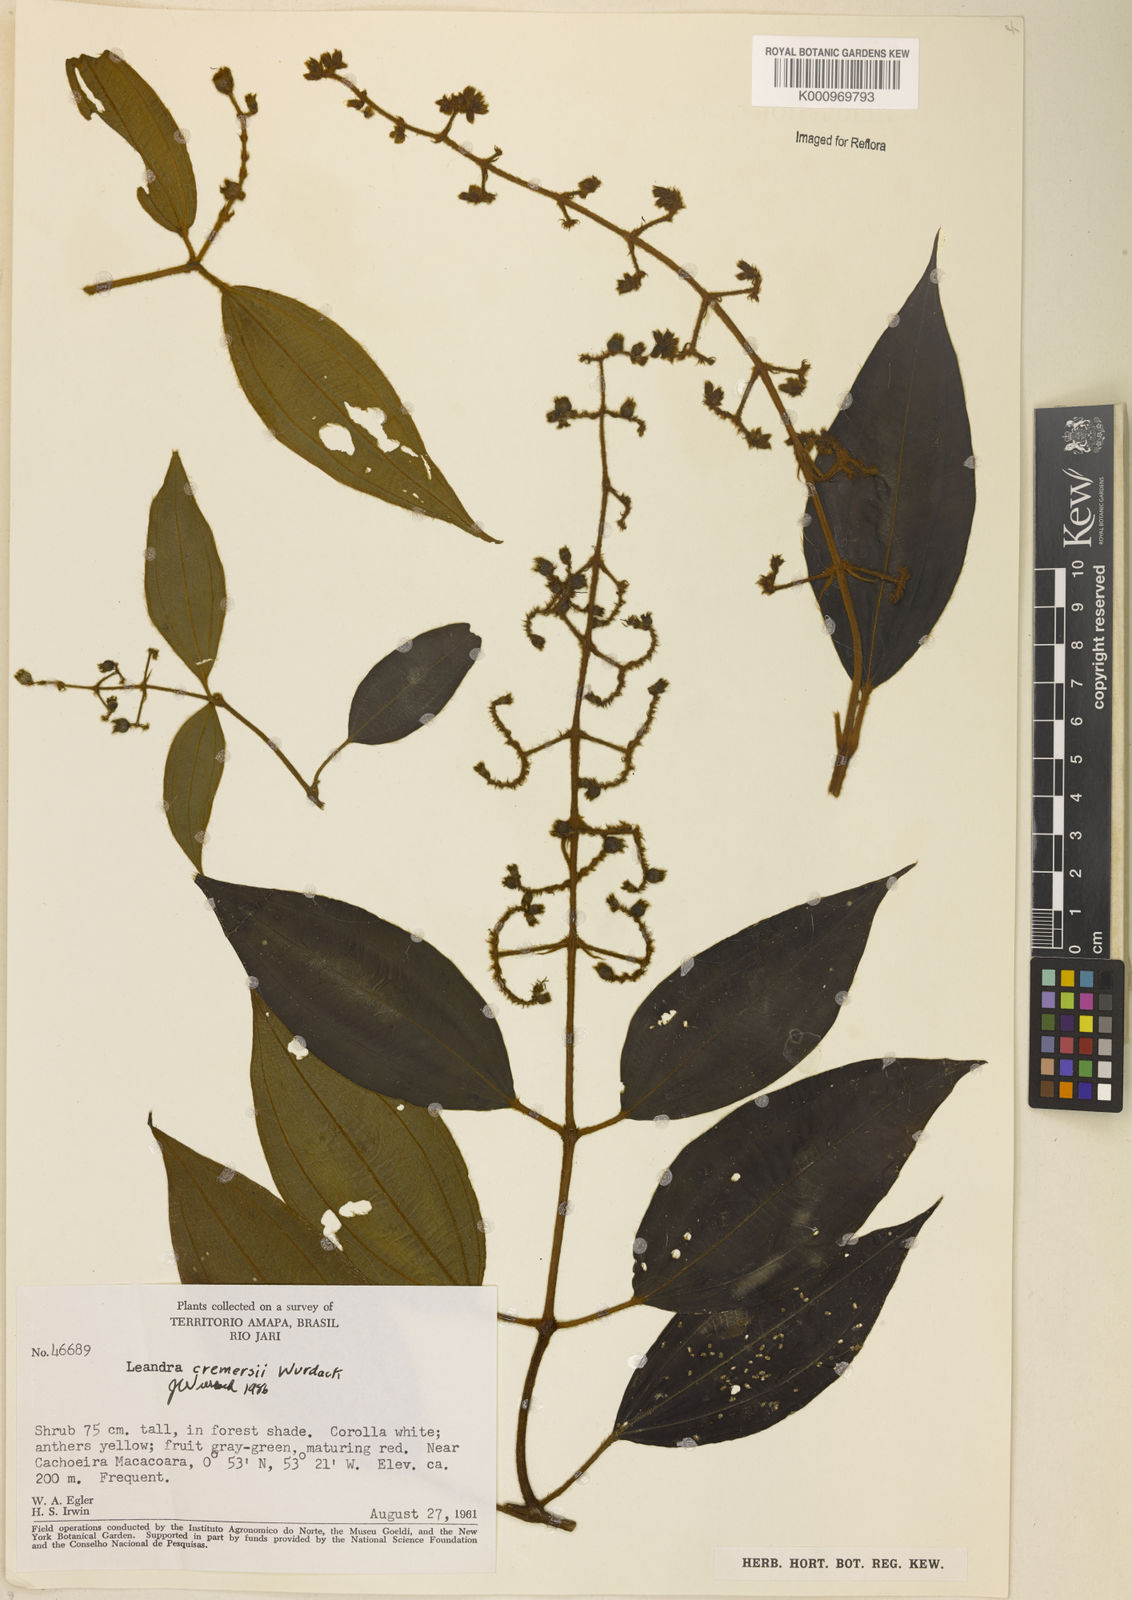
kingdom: Plantae
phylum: Tracheophyta
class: Magnoliopsida
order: Myrtales
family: Melastomataceae
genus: Miconia
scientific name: Miconia cremersii
